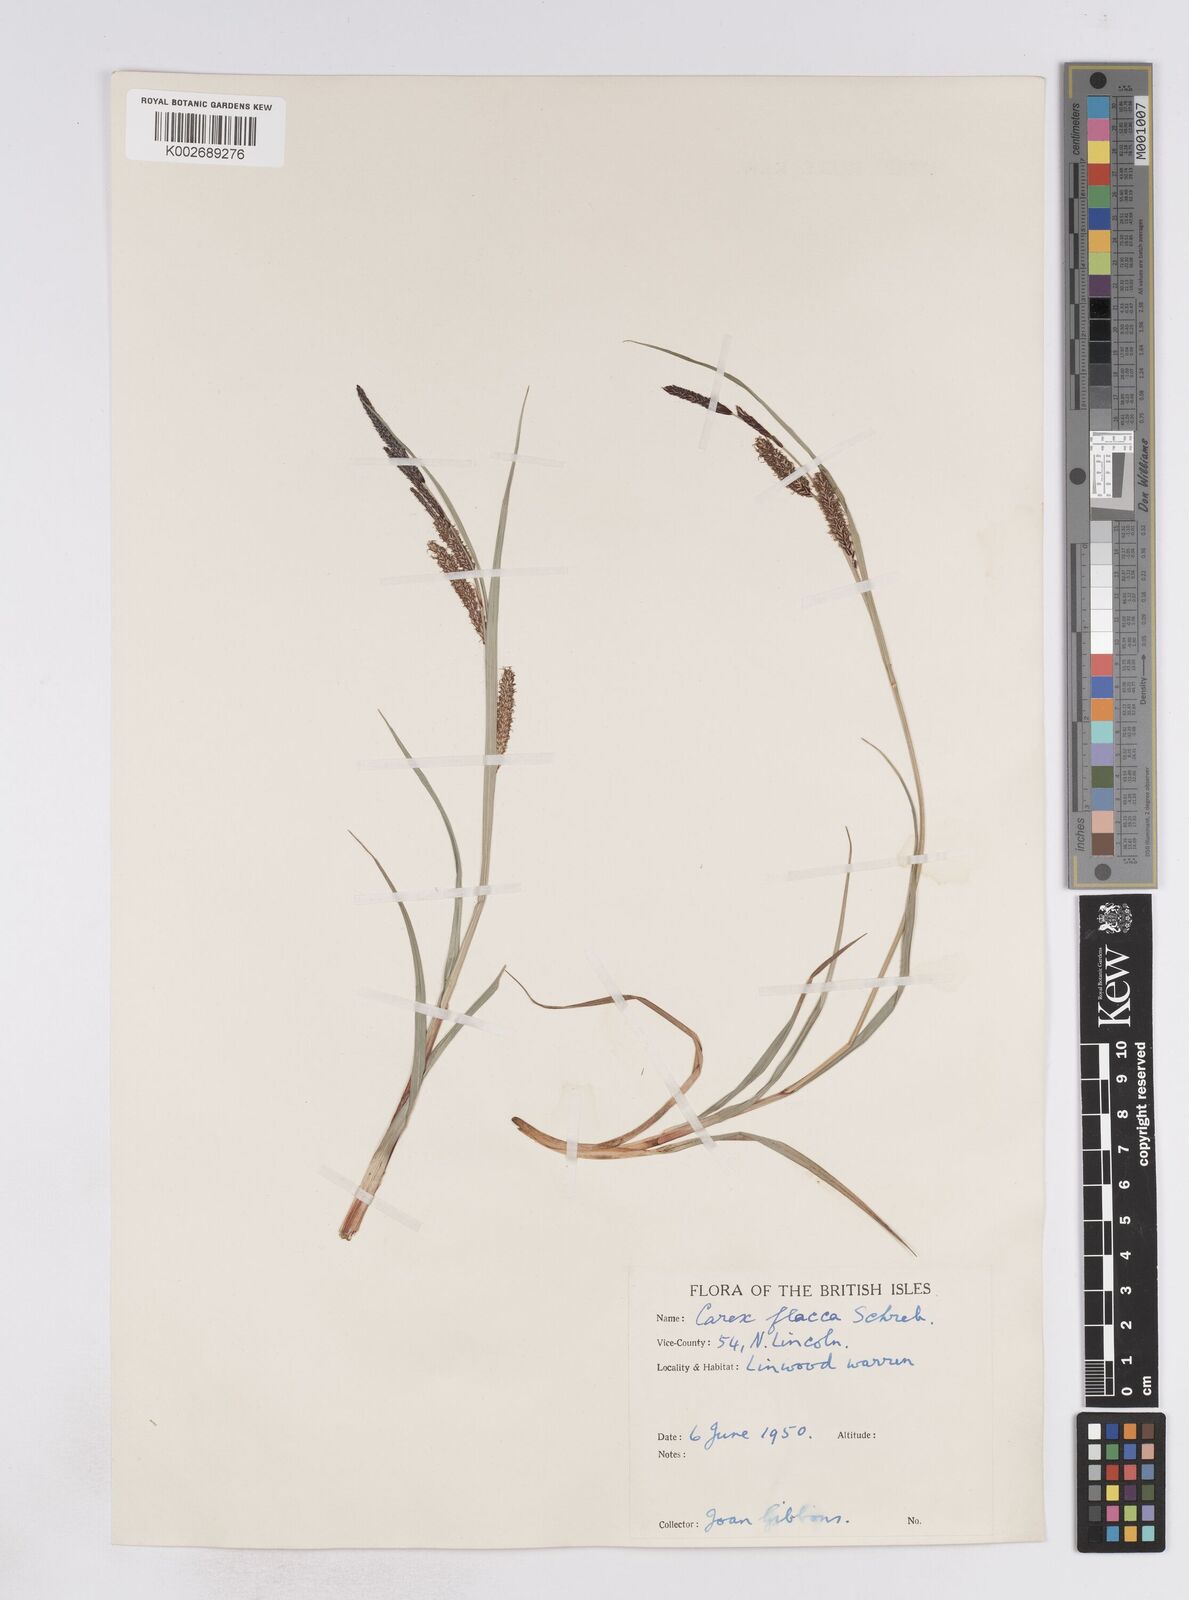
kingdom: Plantae
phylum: Tracheophyta
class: Liliopsida
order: Poales
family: Cyperaceae
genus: Carex
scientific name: Carex flacca
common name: Glaucous sedge
